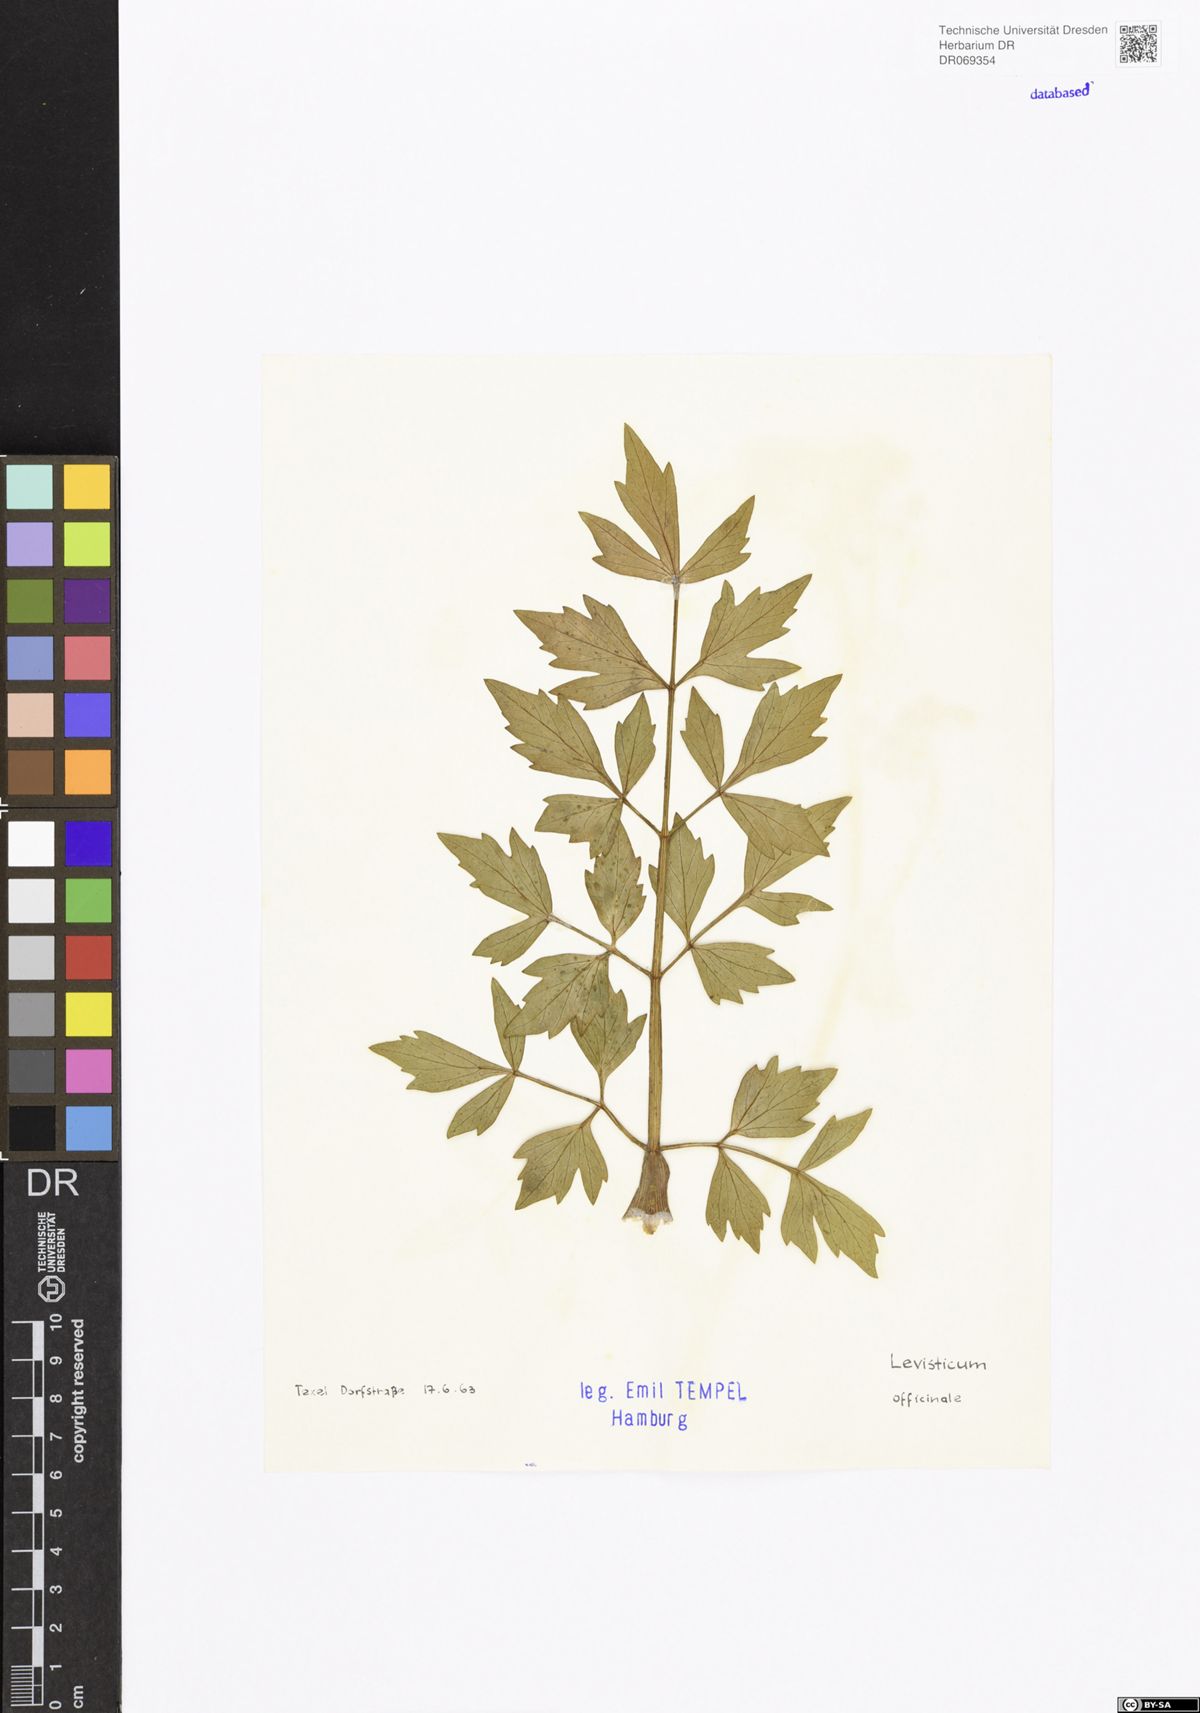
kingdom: Plantae
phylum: Tracheophyta
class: Magnoliopsida
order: Apiales
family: Apiaceae
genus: Levisticum
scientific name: Levisticum officinale
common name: Lovage
